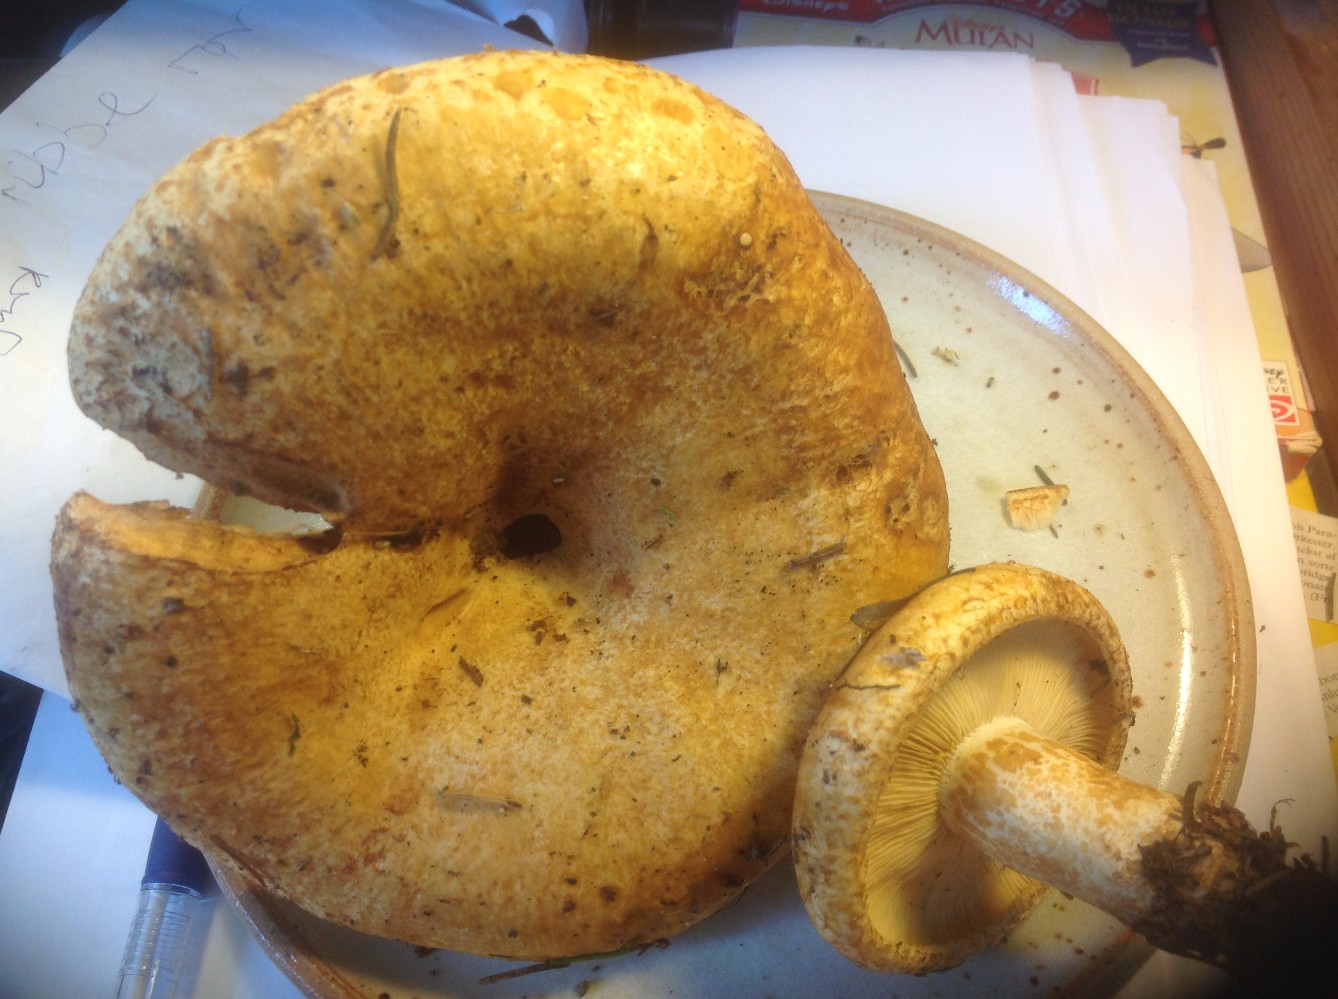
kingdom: Fungi
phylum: Basidiomycota
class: Agaricomycetes
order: Russulales
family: Russulaceae
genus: Lactarius
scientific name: Lactarius scrobiculatus
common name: grubestokket mælkehat
